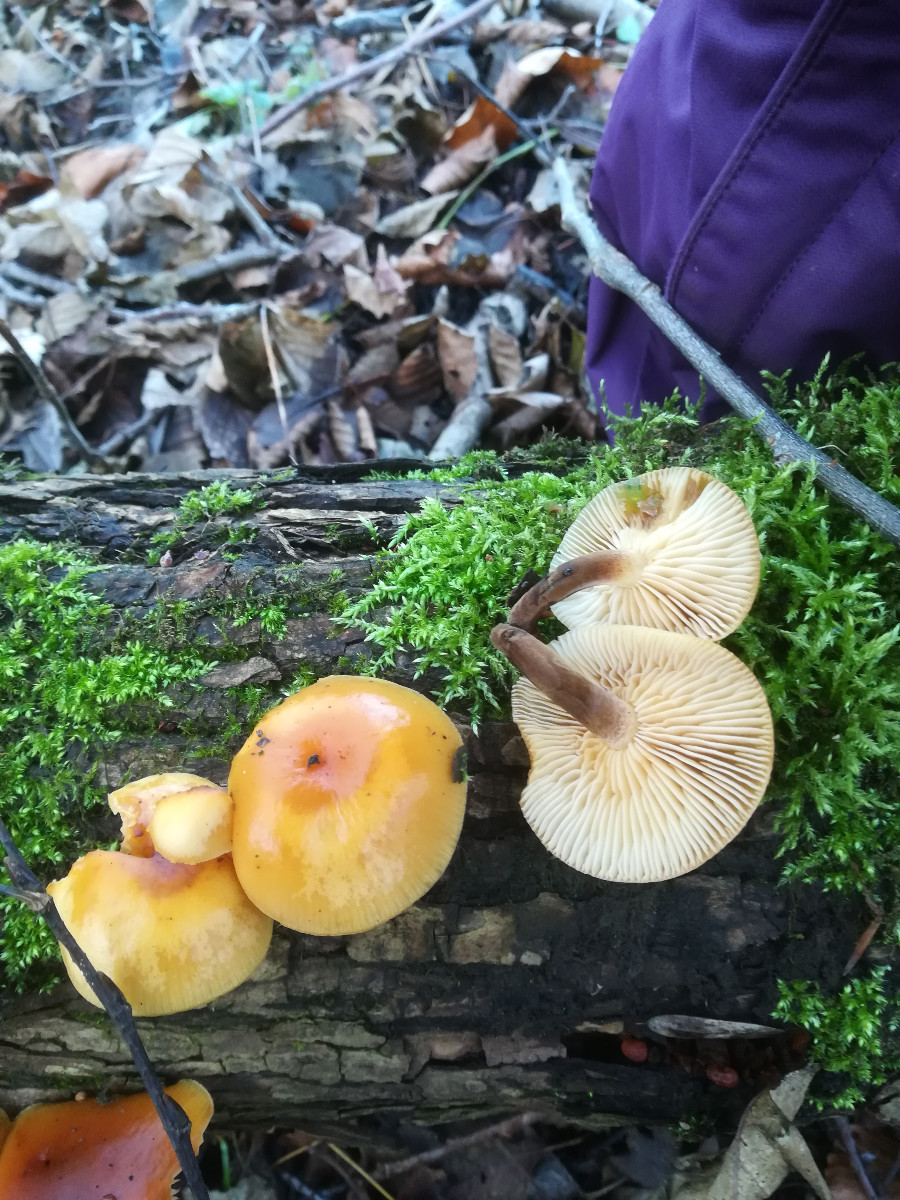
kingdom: Fungi
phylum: Basidiomycota
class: Agaricomycetes
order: Agaricales
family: Physalacriaceae
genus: Flammulina
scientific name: Flammulina
